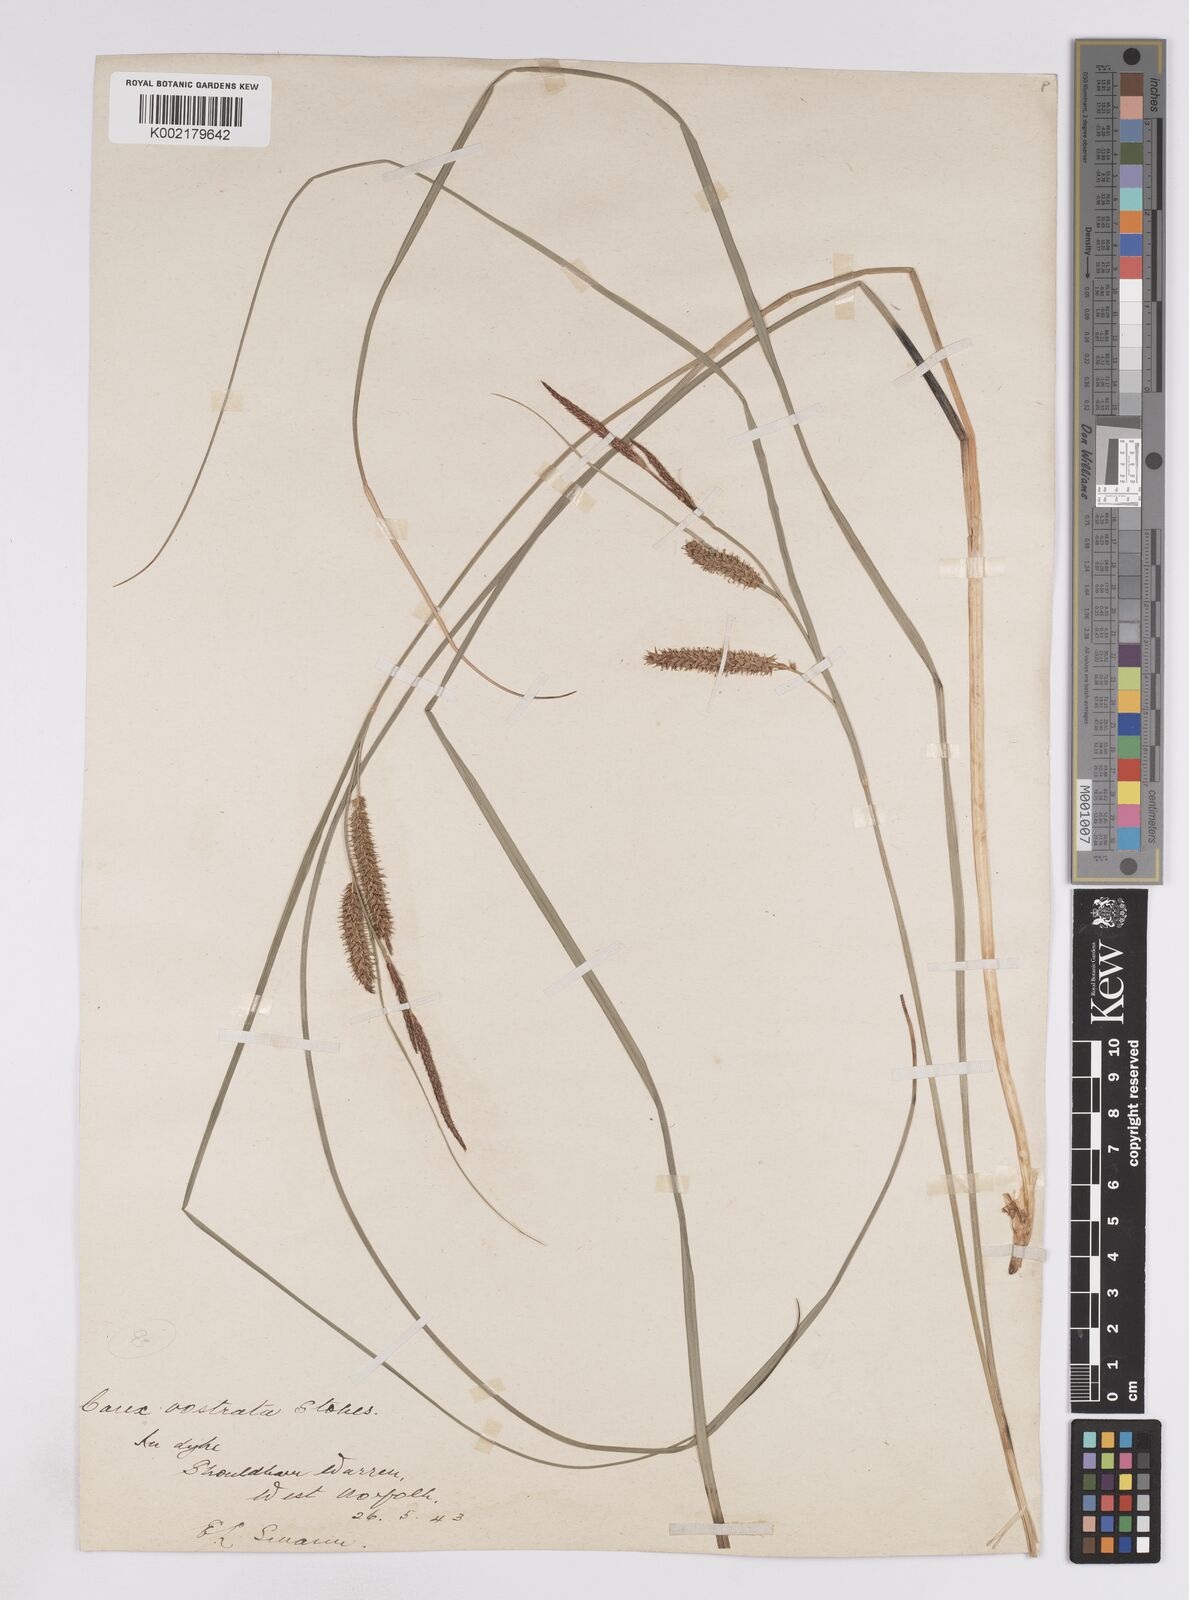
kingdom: Plantae
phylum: Tracheophyta
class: Liliopsida
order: Poales
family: Cyperaceae
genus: Carex
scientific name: Carex rostrata
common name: Bottle sedge
